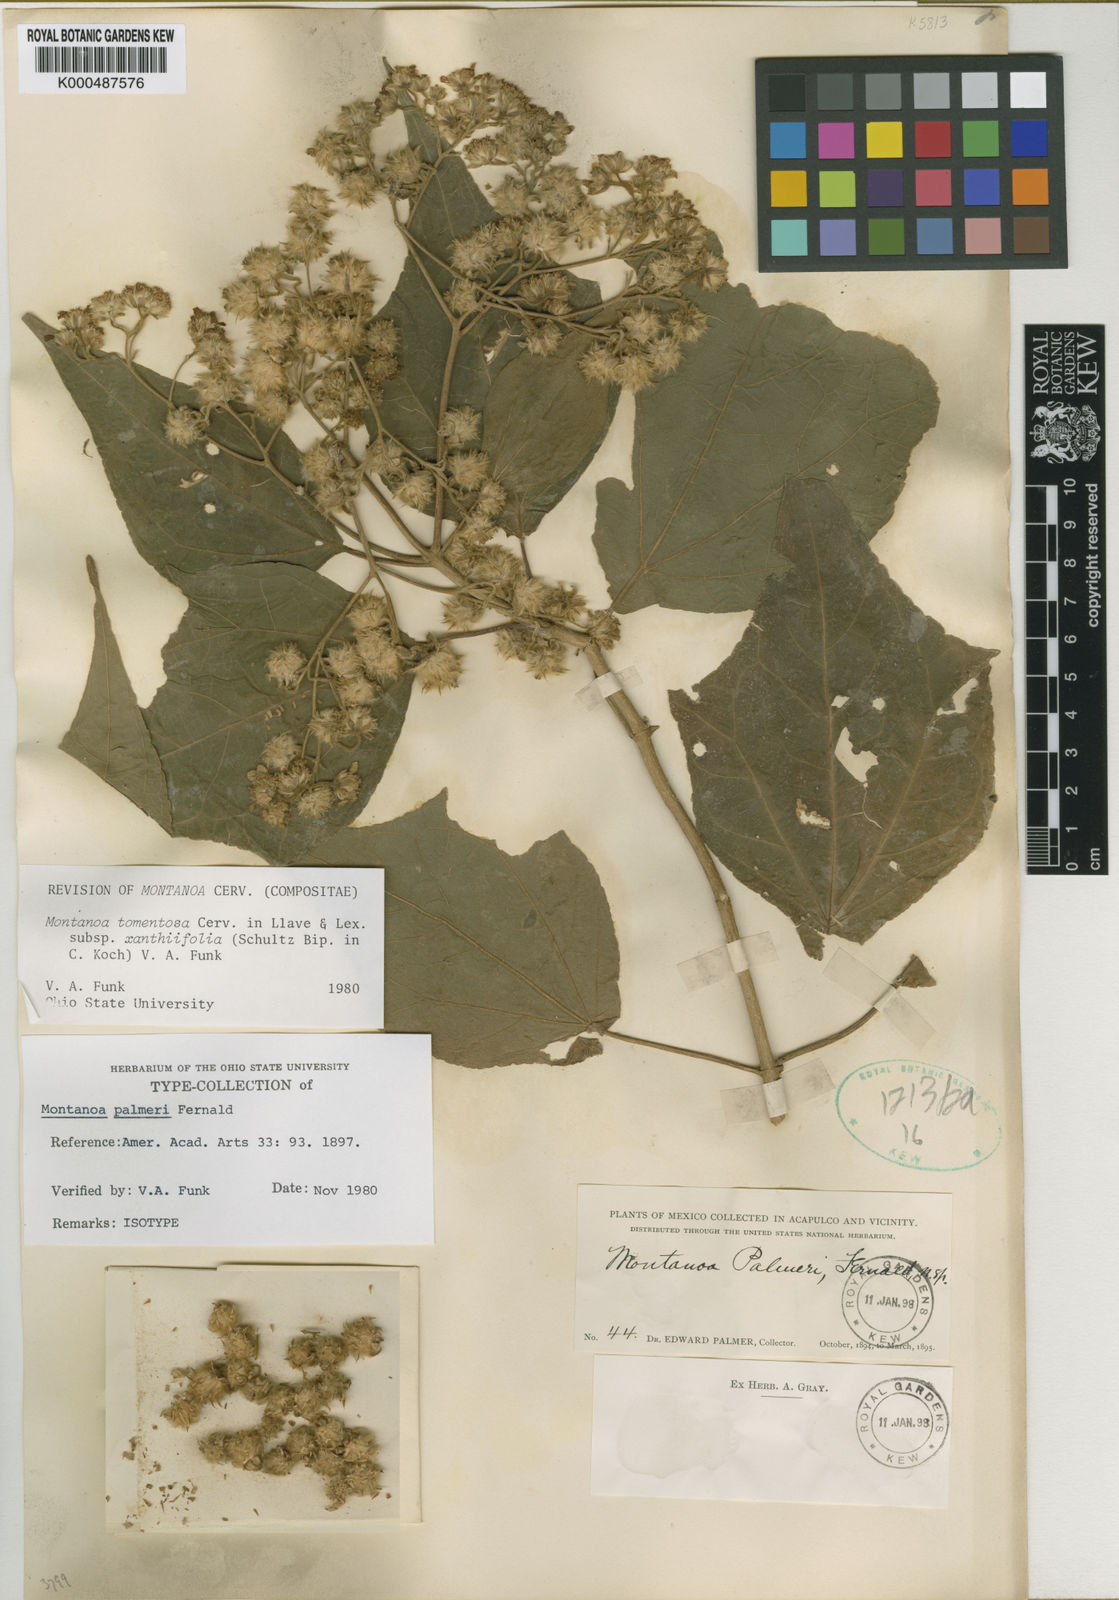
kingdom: Plantae
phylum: Tracheophyta
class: Magnoliopsida
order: Asterales
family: Asteraceae
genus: Montanoa
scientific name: Montanoa tomentosa
